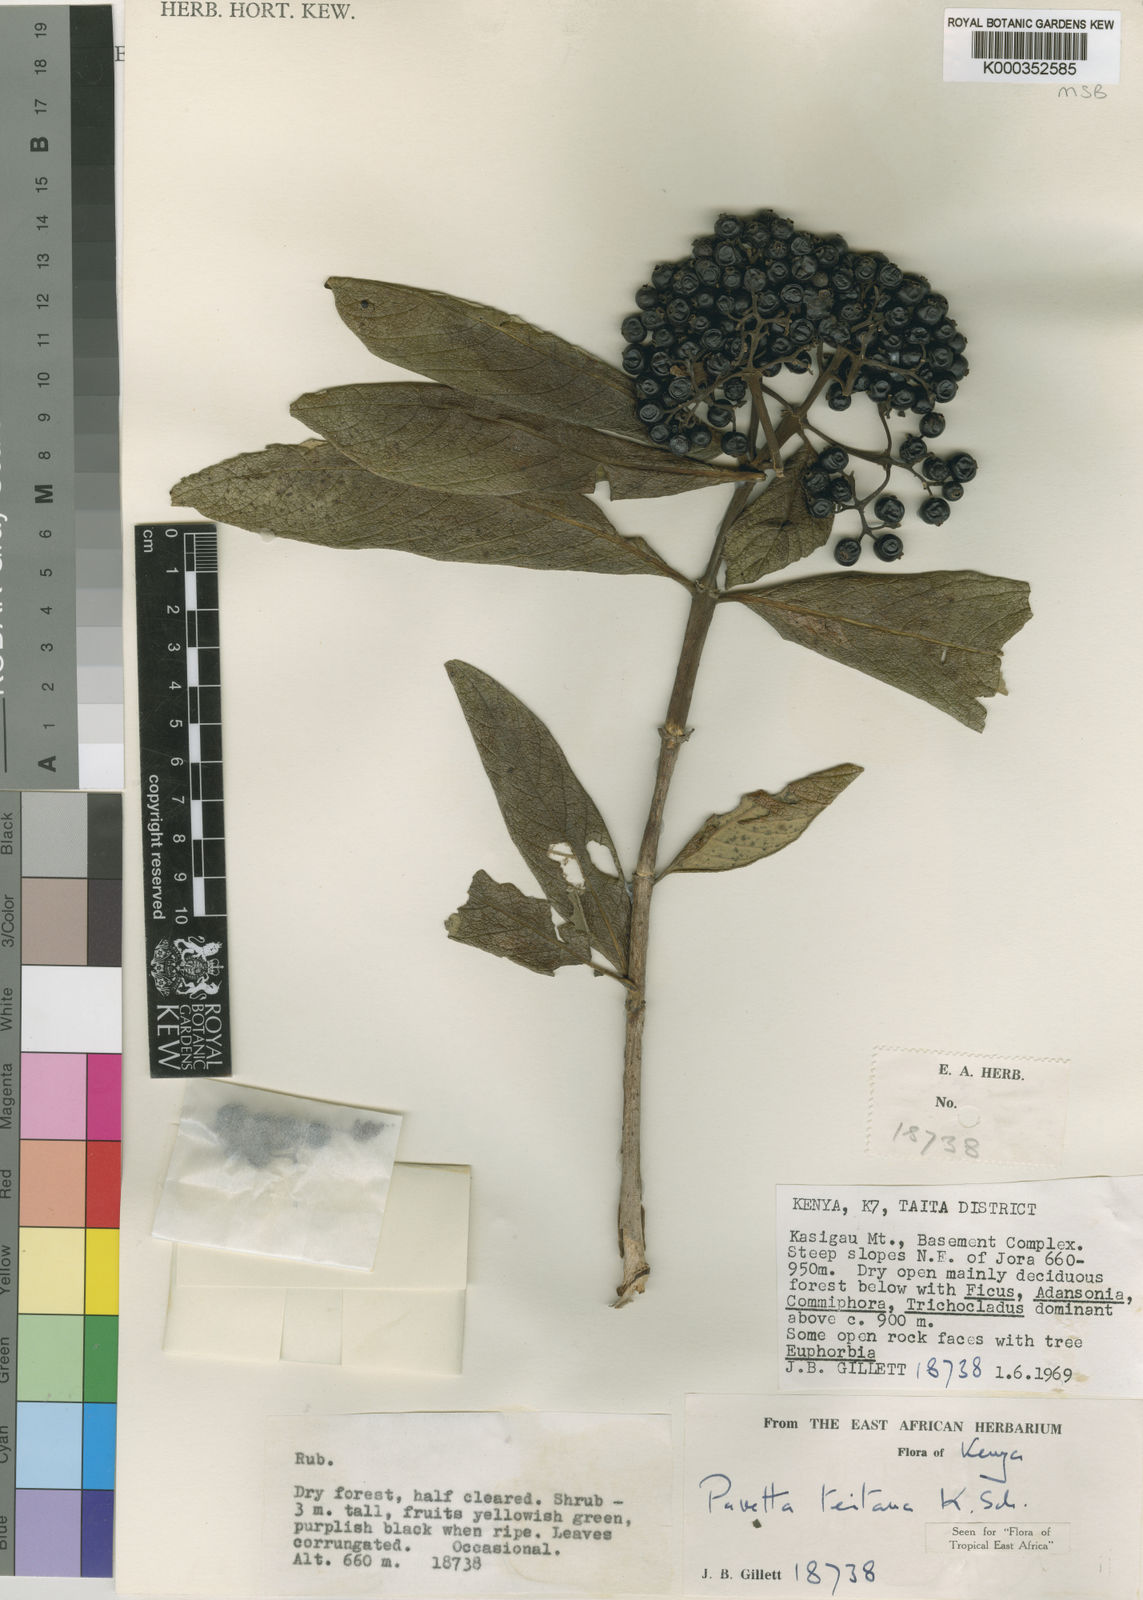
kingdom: Plantae
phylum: Tracheophyta
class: Magnoliopsida
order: Gentianales
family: Rubiaceae
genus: Pavetta
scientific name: Pavetta teitana
